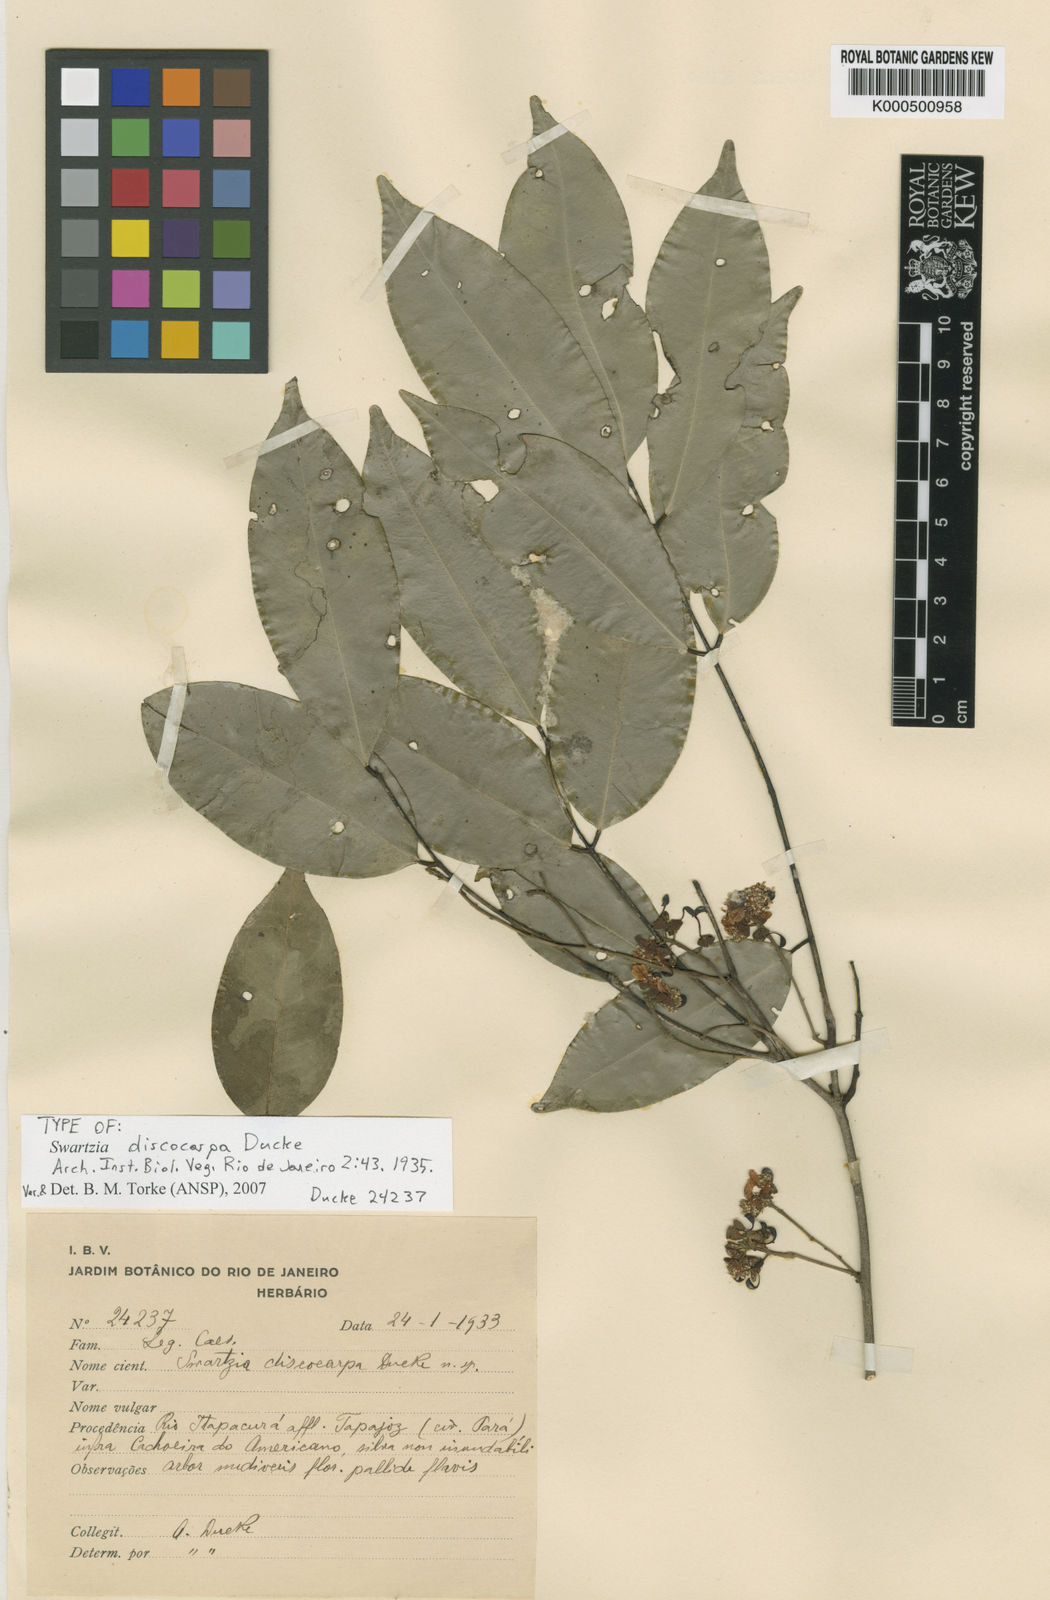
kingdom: Plantae
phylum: Tracheophyta
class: Magnoliopsida
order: Fabales
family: Fabaceae
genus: Swartzia
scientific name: Swartzia discocarpa
